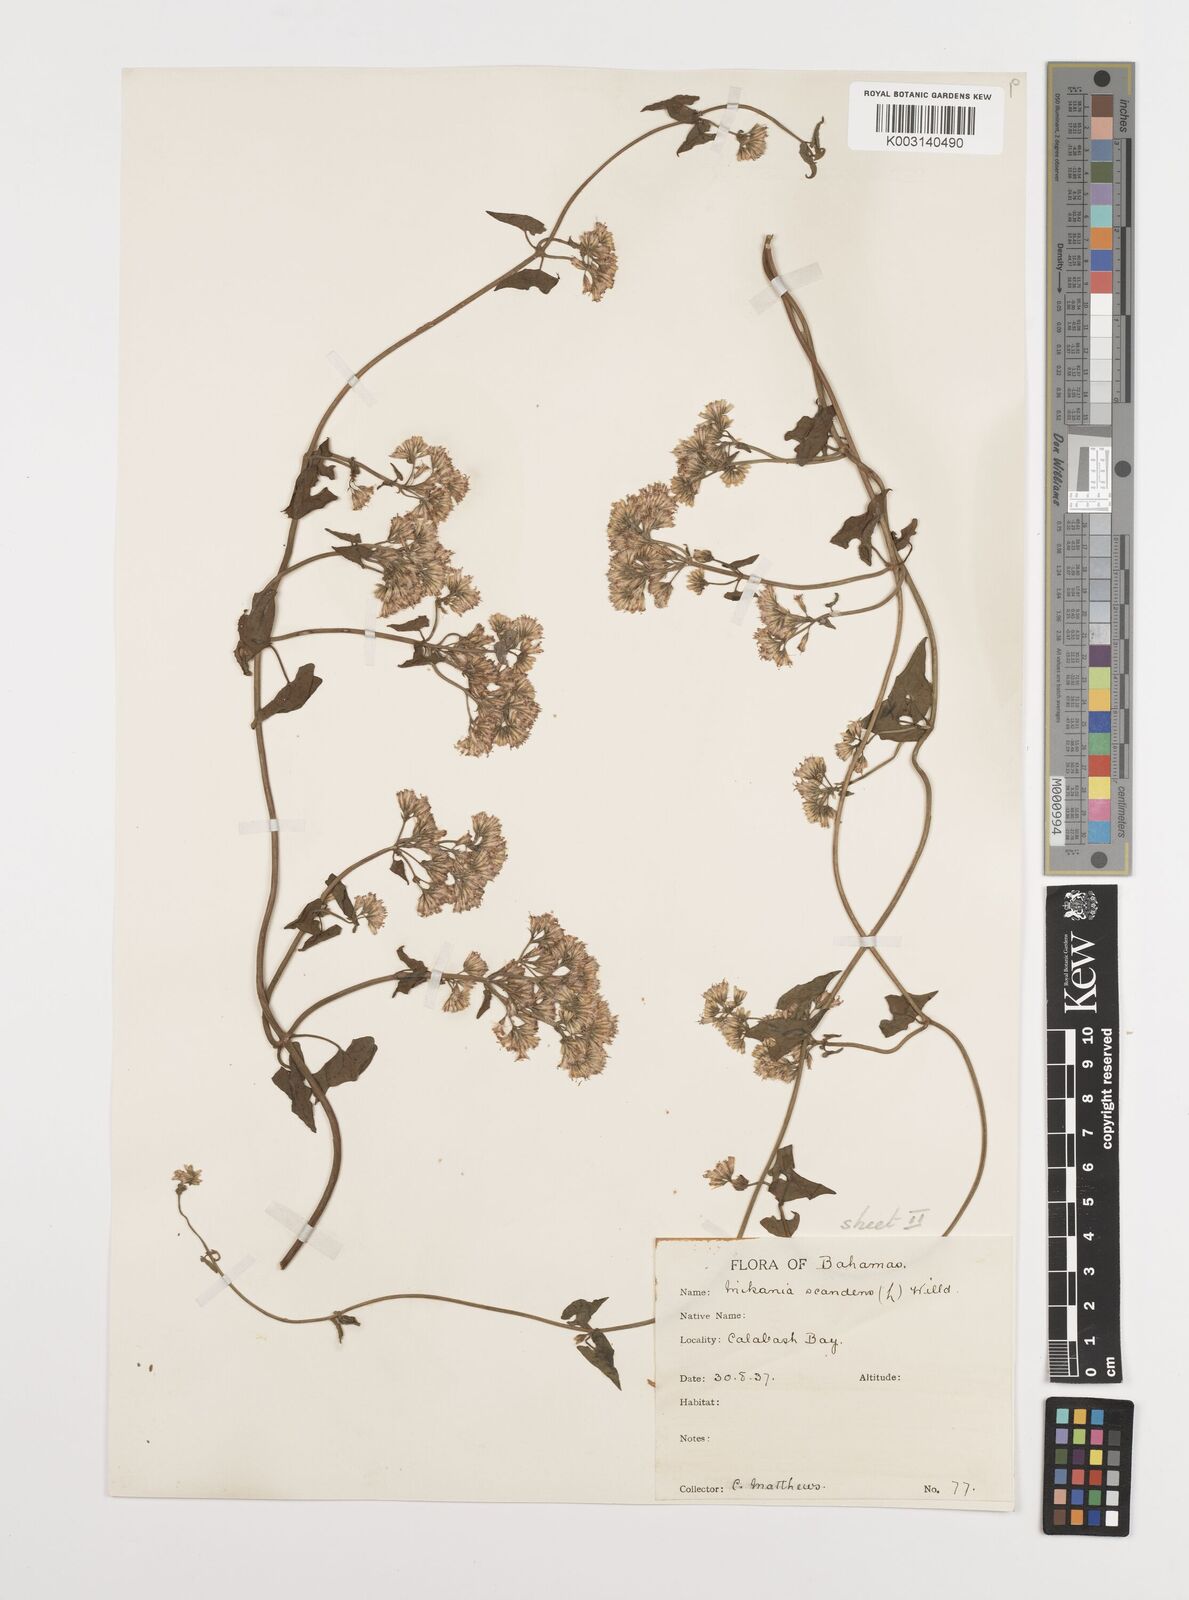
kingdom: Plantae
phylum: Tracheophyta
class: Magnoliopsida
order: Asterales
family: Asteraceae
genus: Mikania
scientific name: Mikania micrantha
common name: Mile-a-minute
